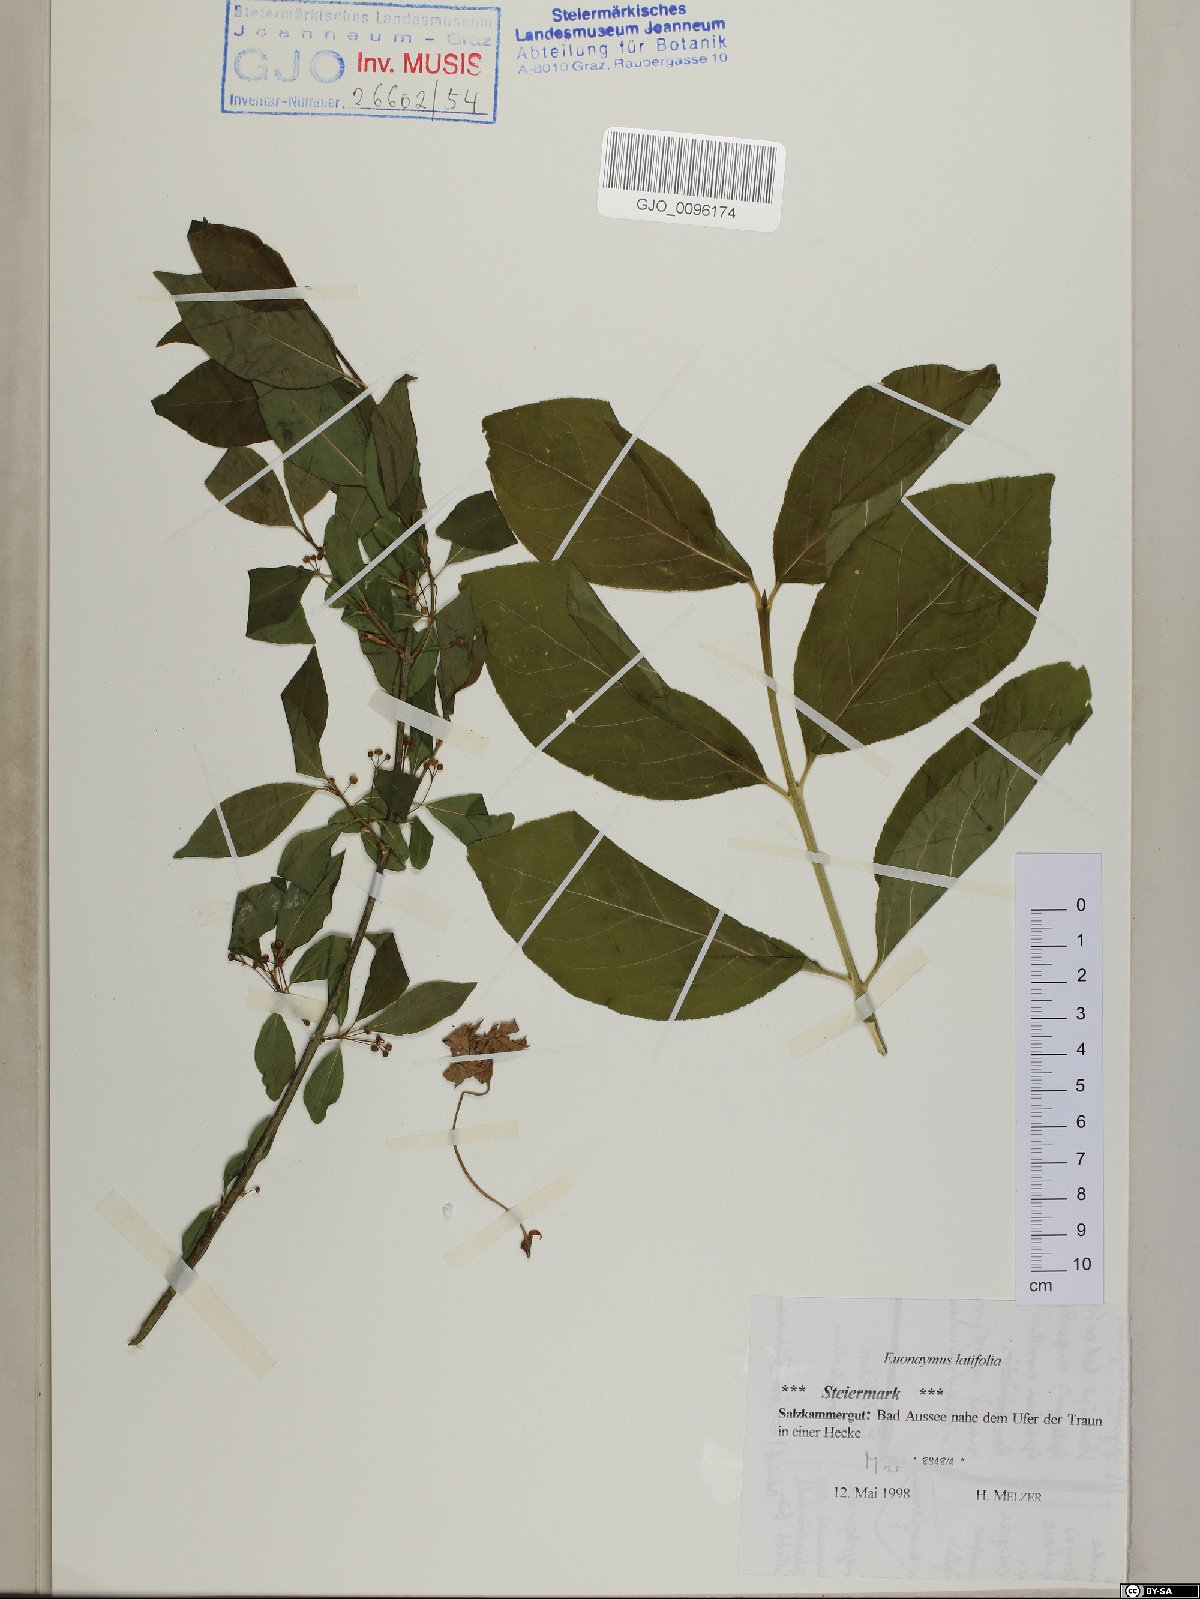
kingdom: Plantae
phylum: Tracheophyta
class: Magnoliopsida
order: Celastrales
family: Celastraceae
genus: Euonymus
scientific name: Euonymus latifolius
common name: Large-leaved spindle
